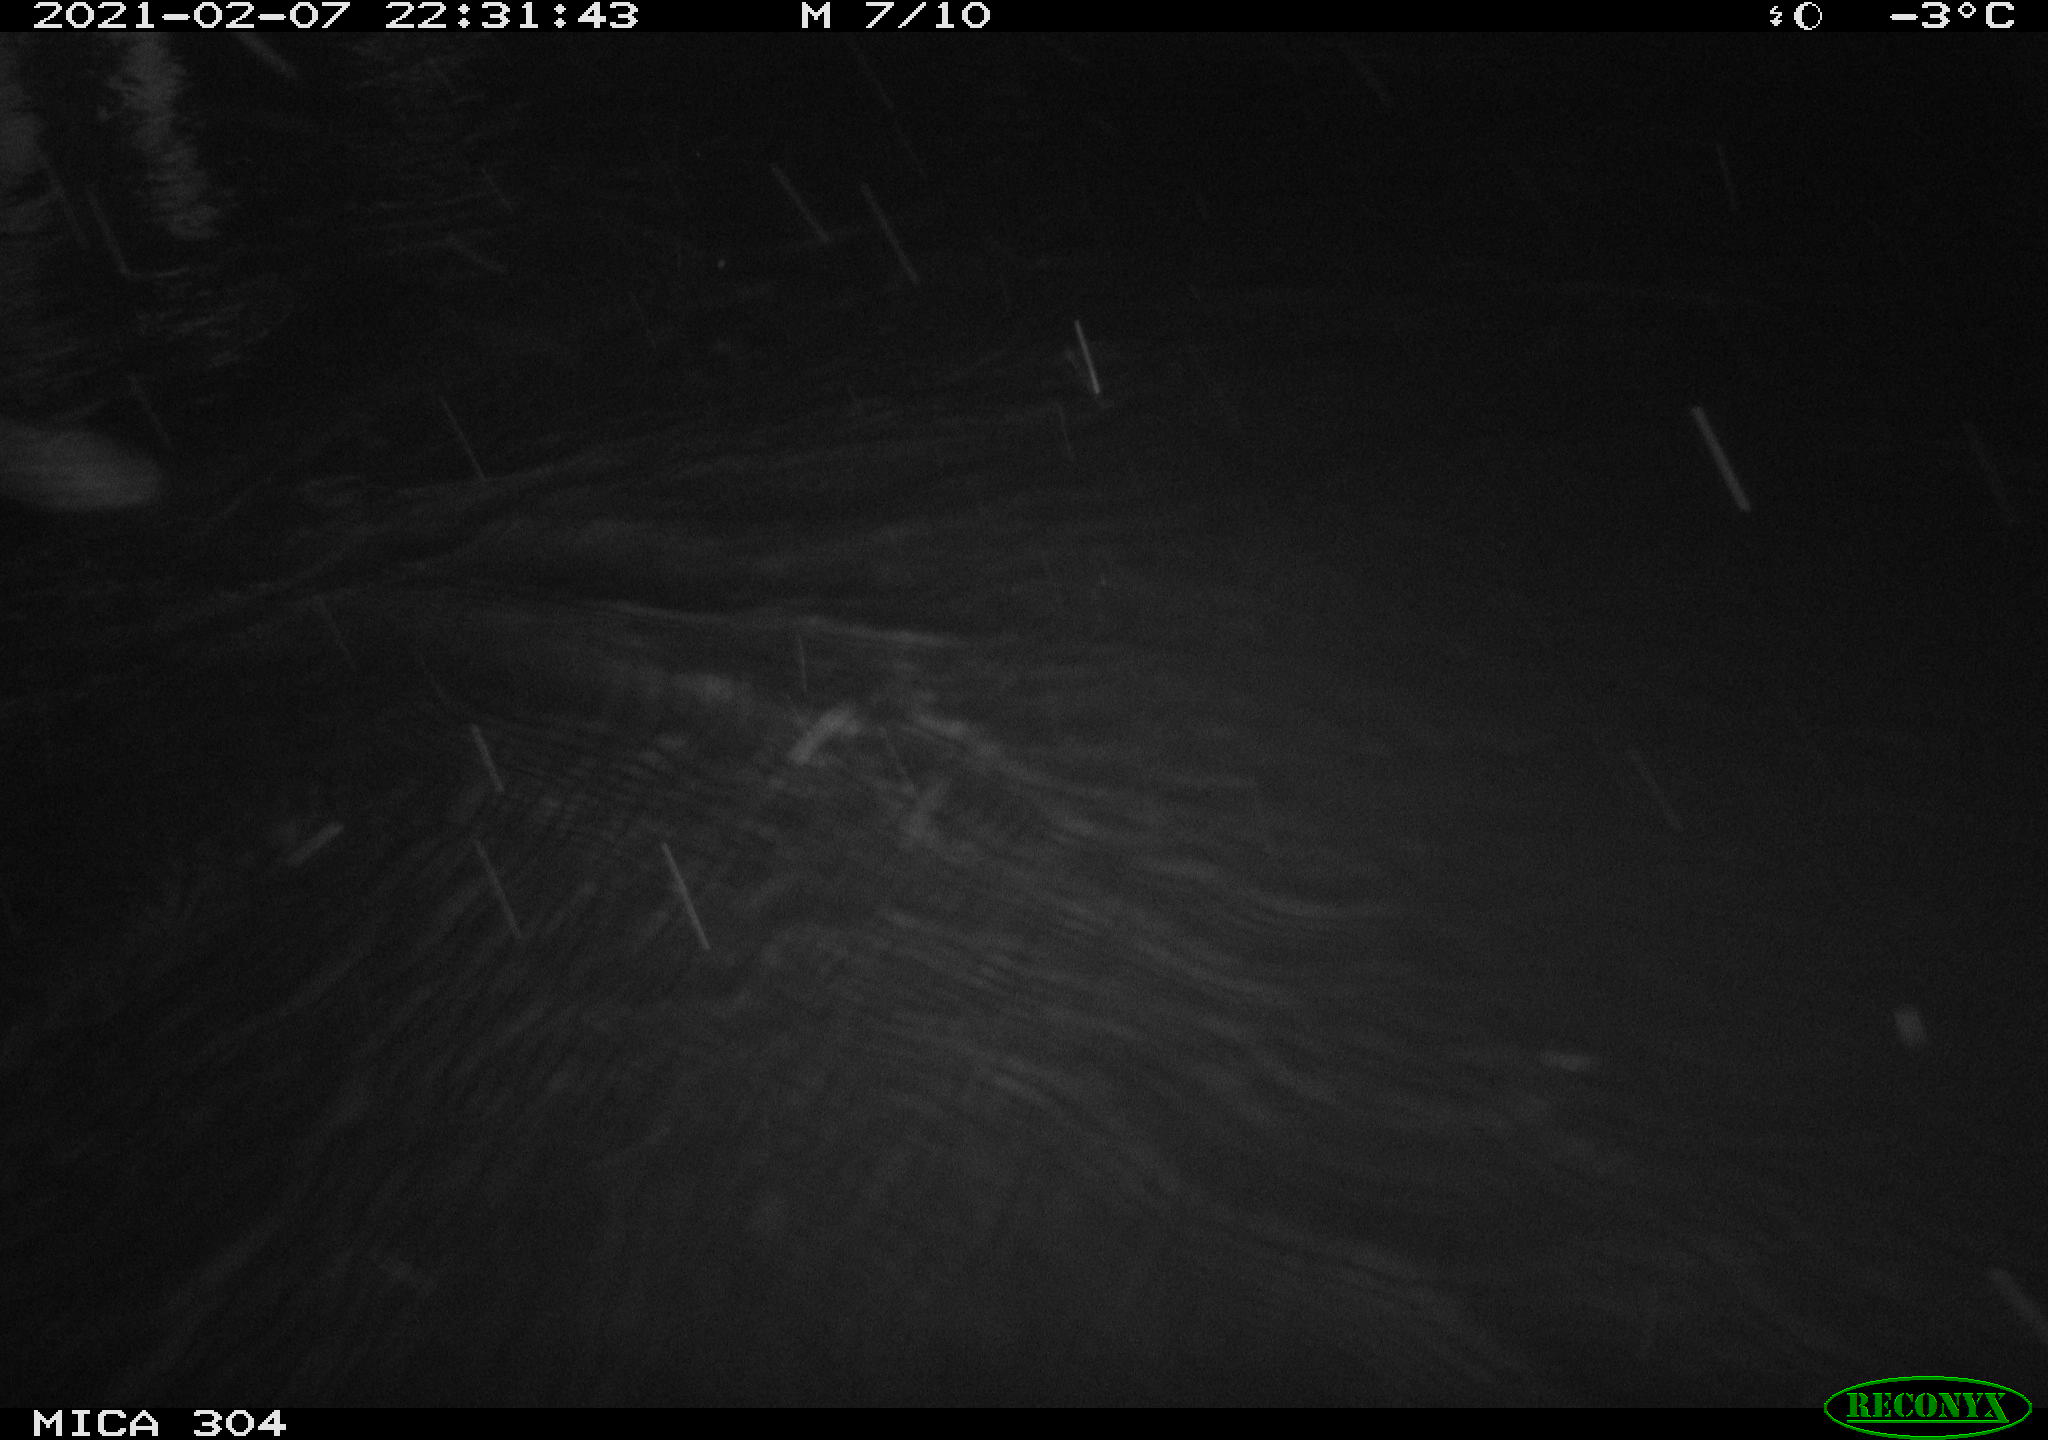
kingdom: Animalia
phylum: Chordata
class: Aves
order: Anseriformes
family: Anatidae
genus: Anas
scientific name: Anas platyrhynchos
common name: Mallard
